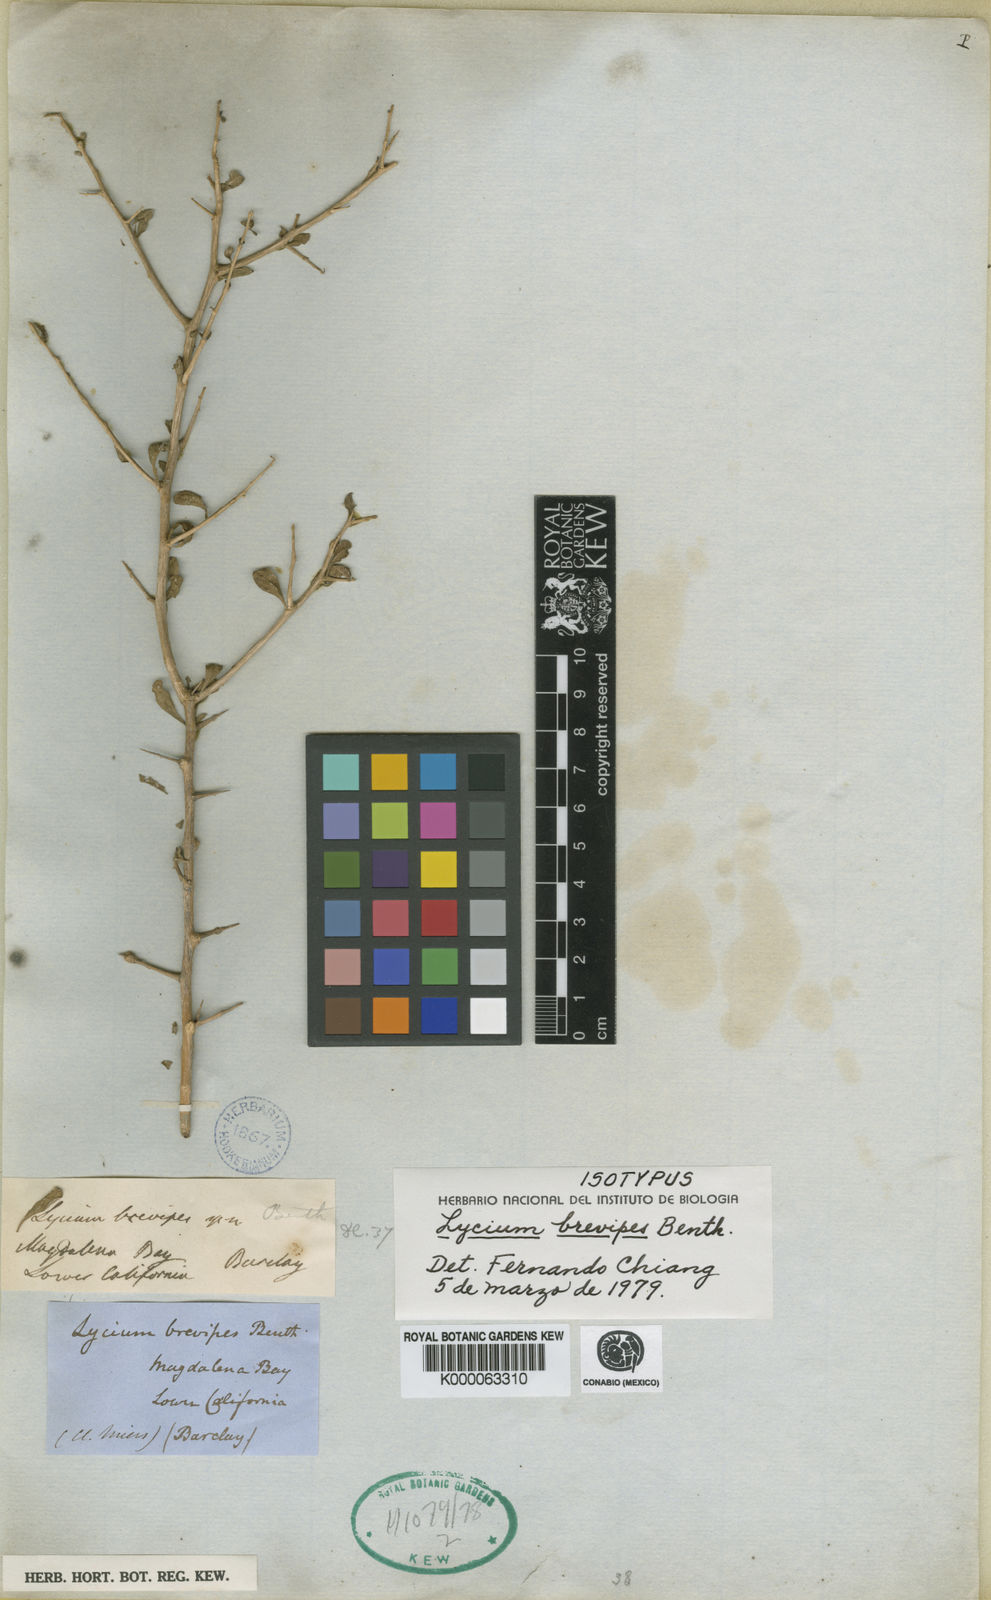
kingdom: Plantae
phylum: Tracheophyta
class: Magnoliopsida
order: Solanales
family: Solanaceae
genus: Lycium
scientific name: Lycium brevipes
